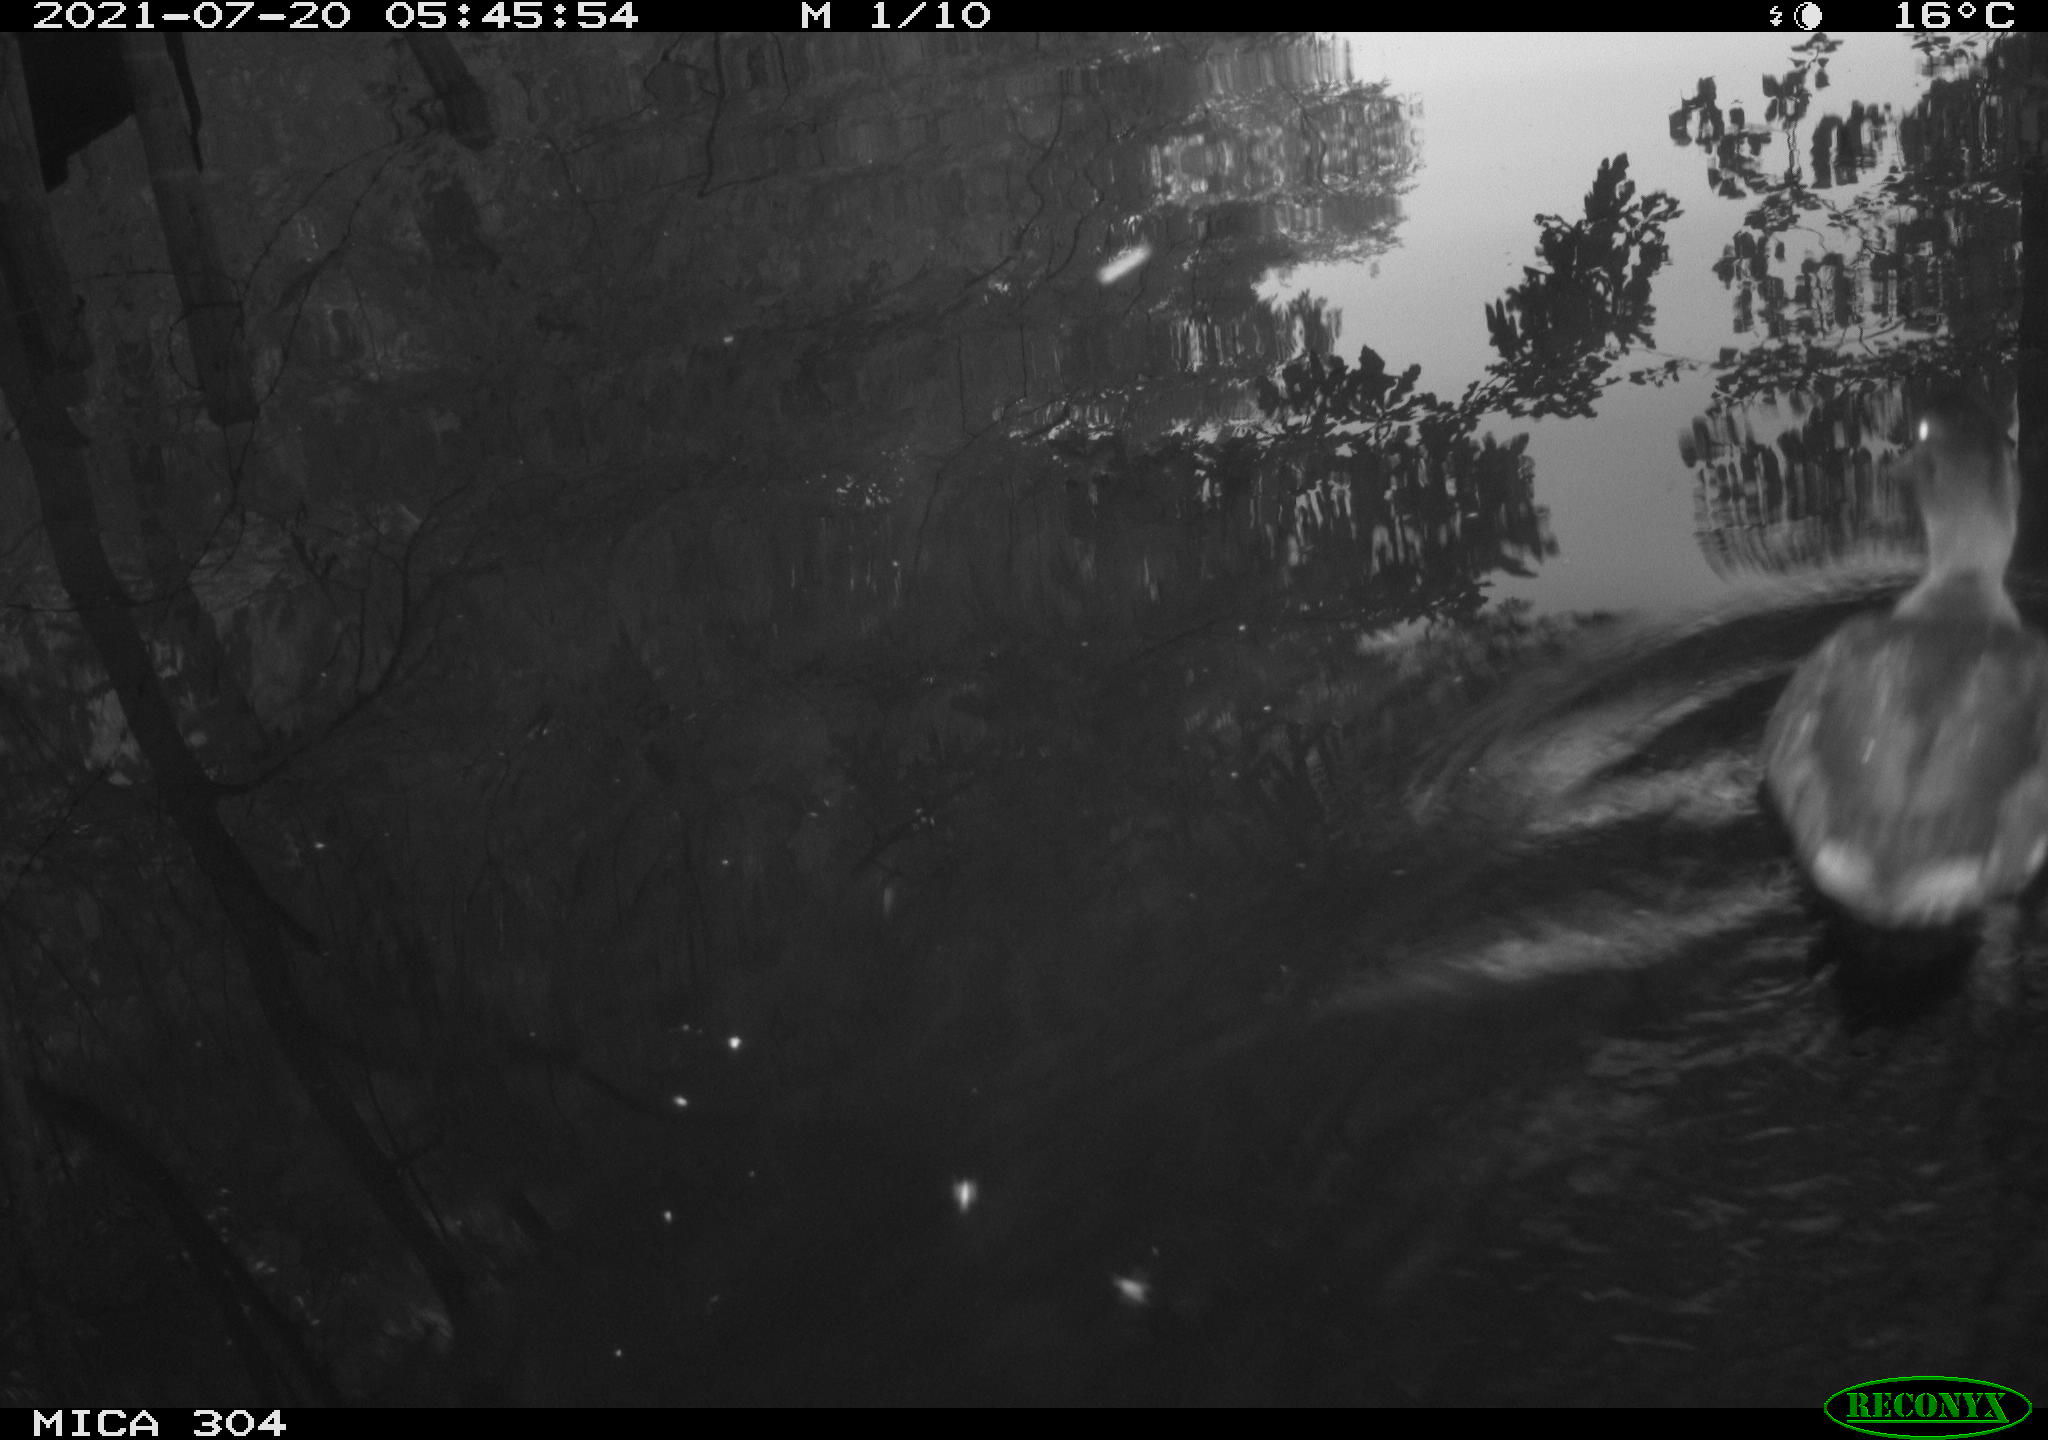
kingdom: Animalia
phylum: Chordata
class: Aves
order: Anseriformes
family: Anatidae
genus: Anas
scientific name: Anas platyrhynchos
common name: Mallard
